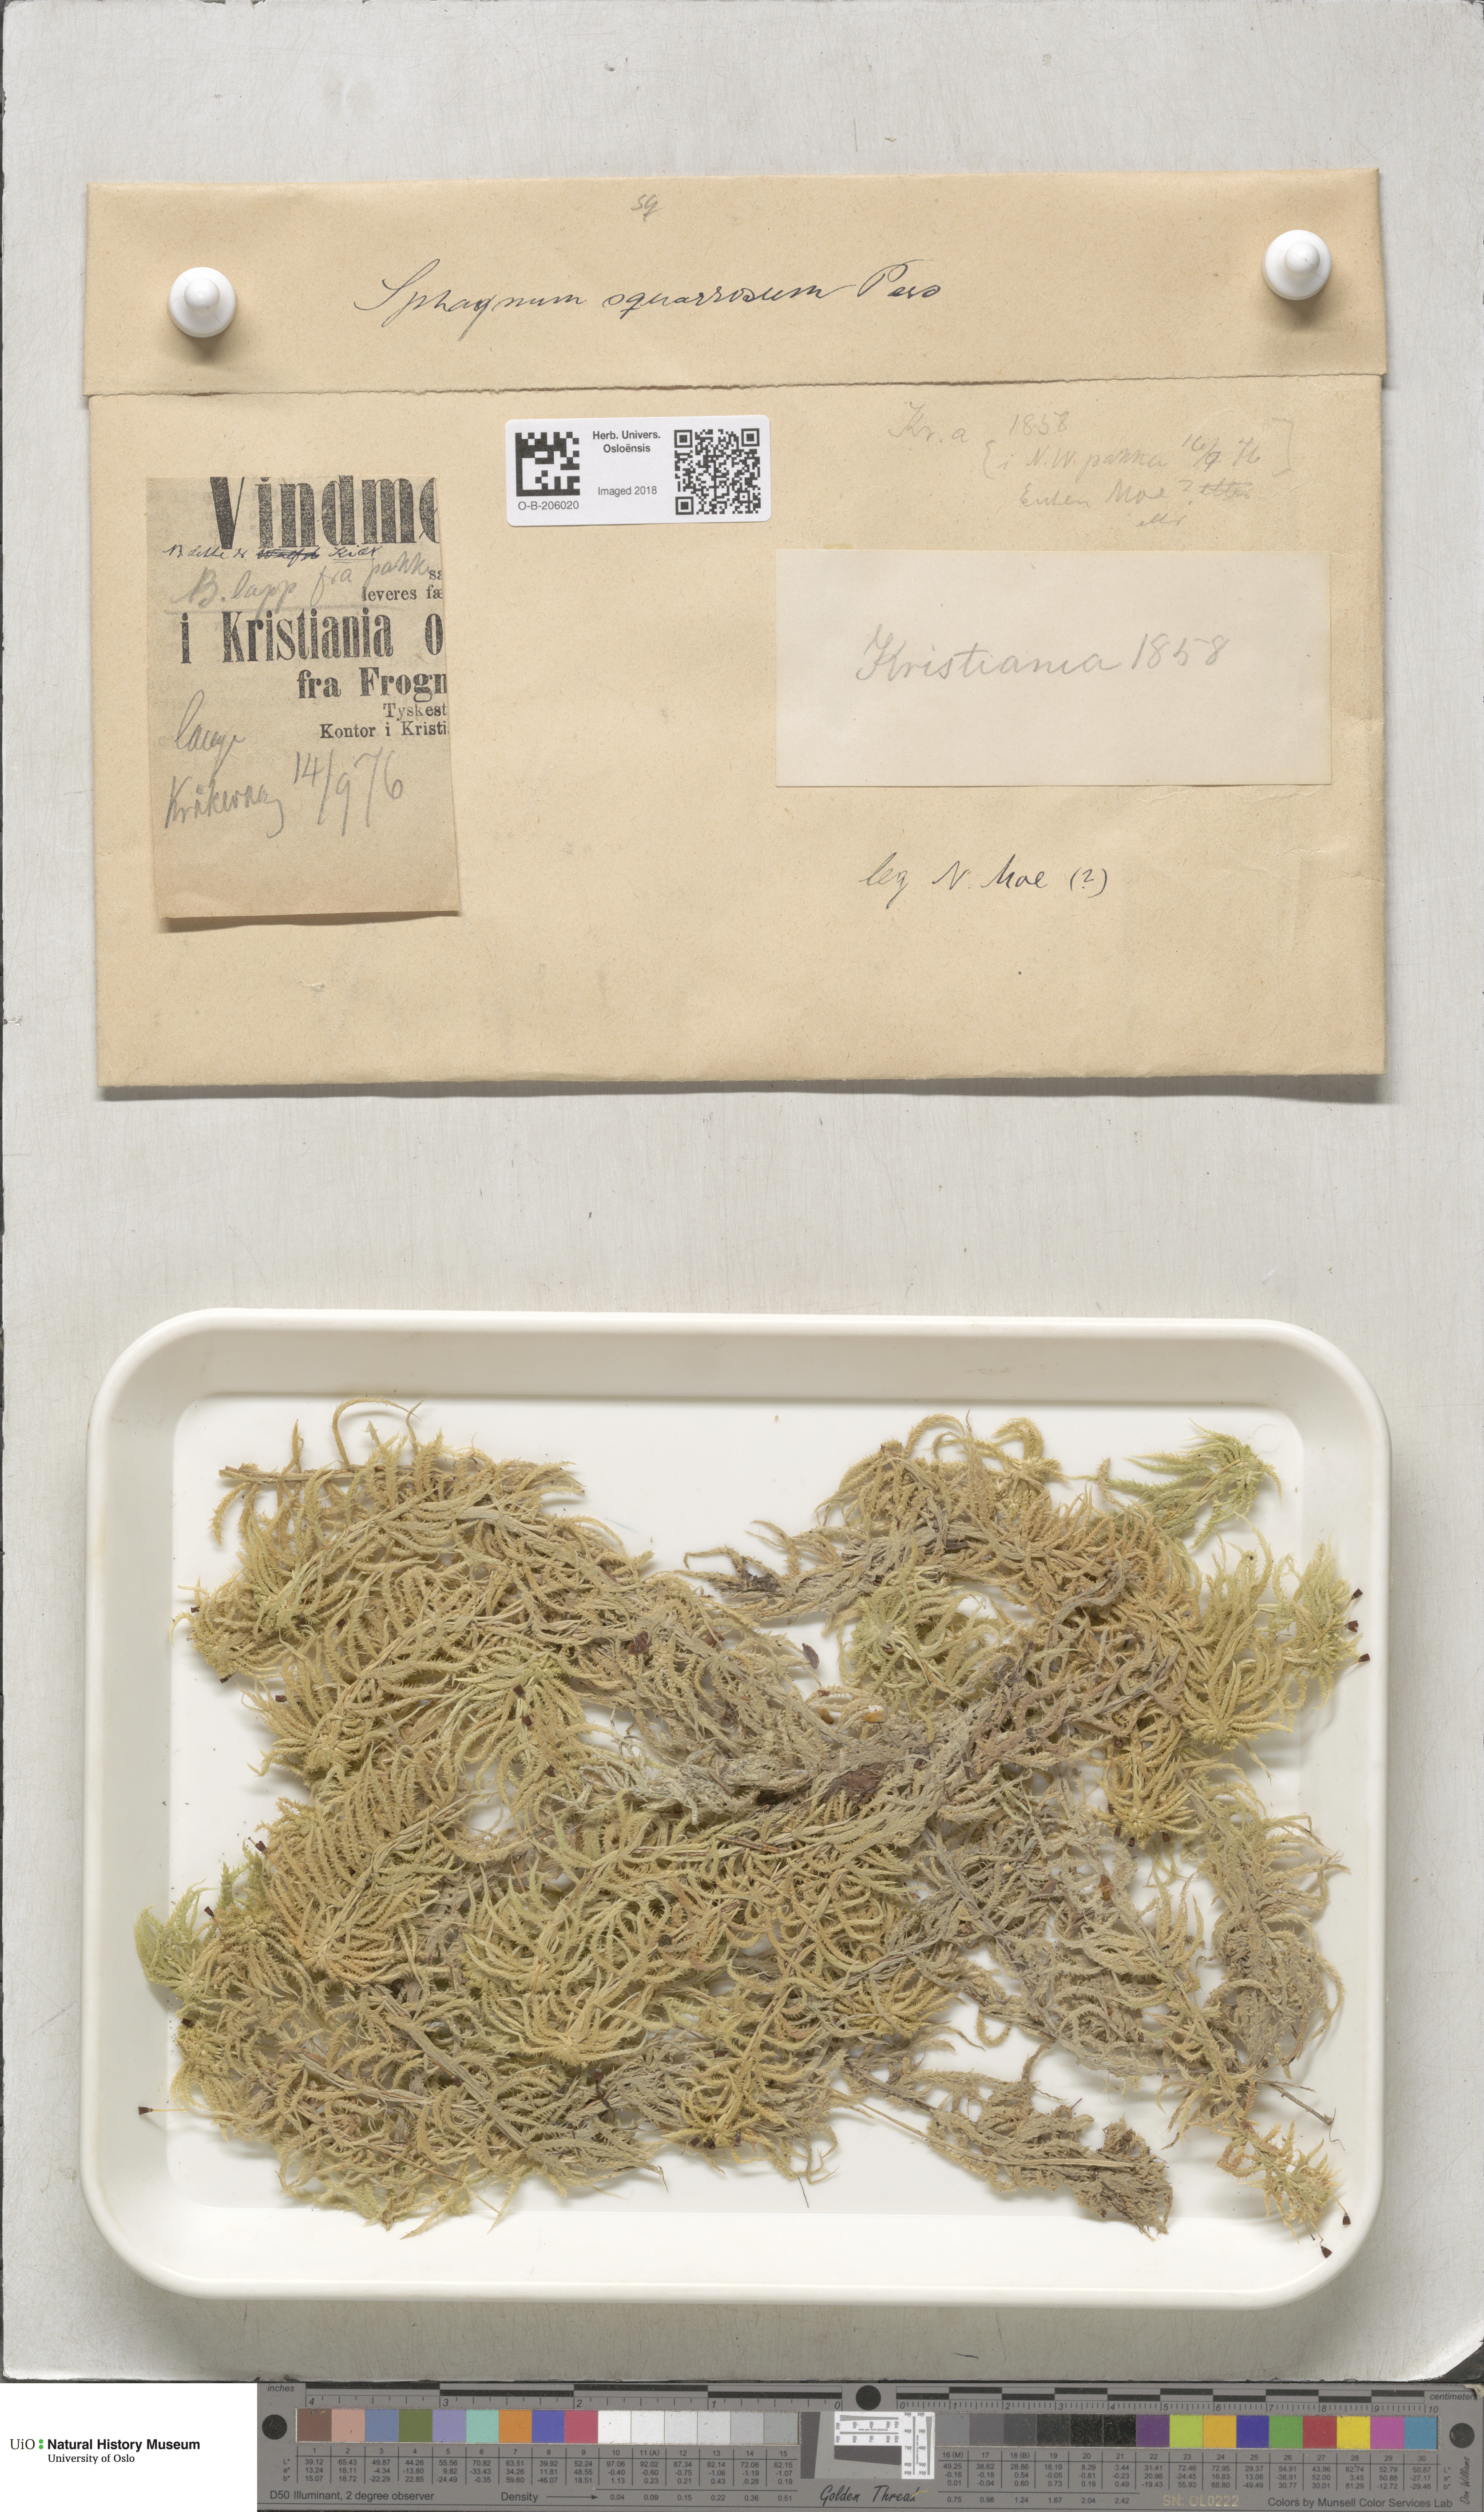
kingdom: Plantae
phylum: Bryophyta
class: Sphagnopsida
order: Sphagnales
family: Sphagnaceae
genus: Sphagnum
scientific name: Sphagnum squarrosum
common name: Shaggy peat moss
